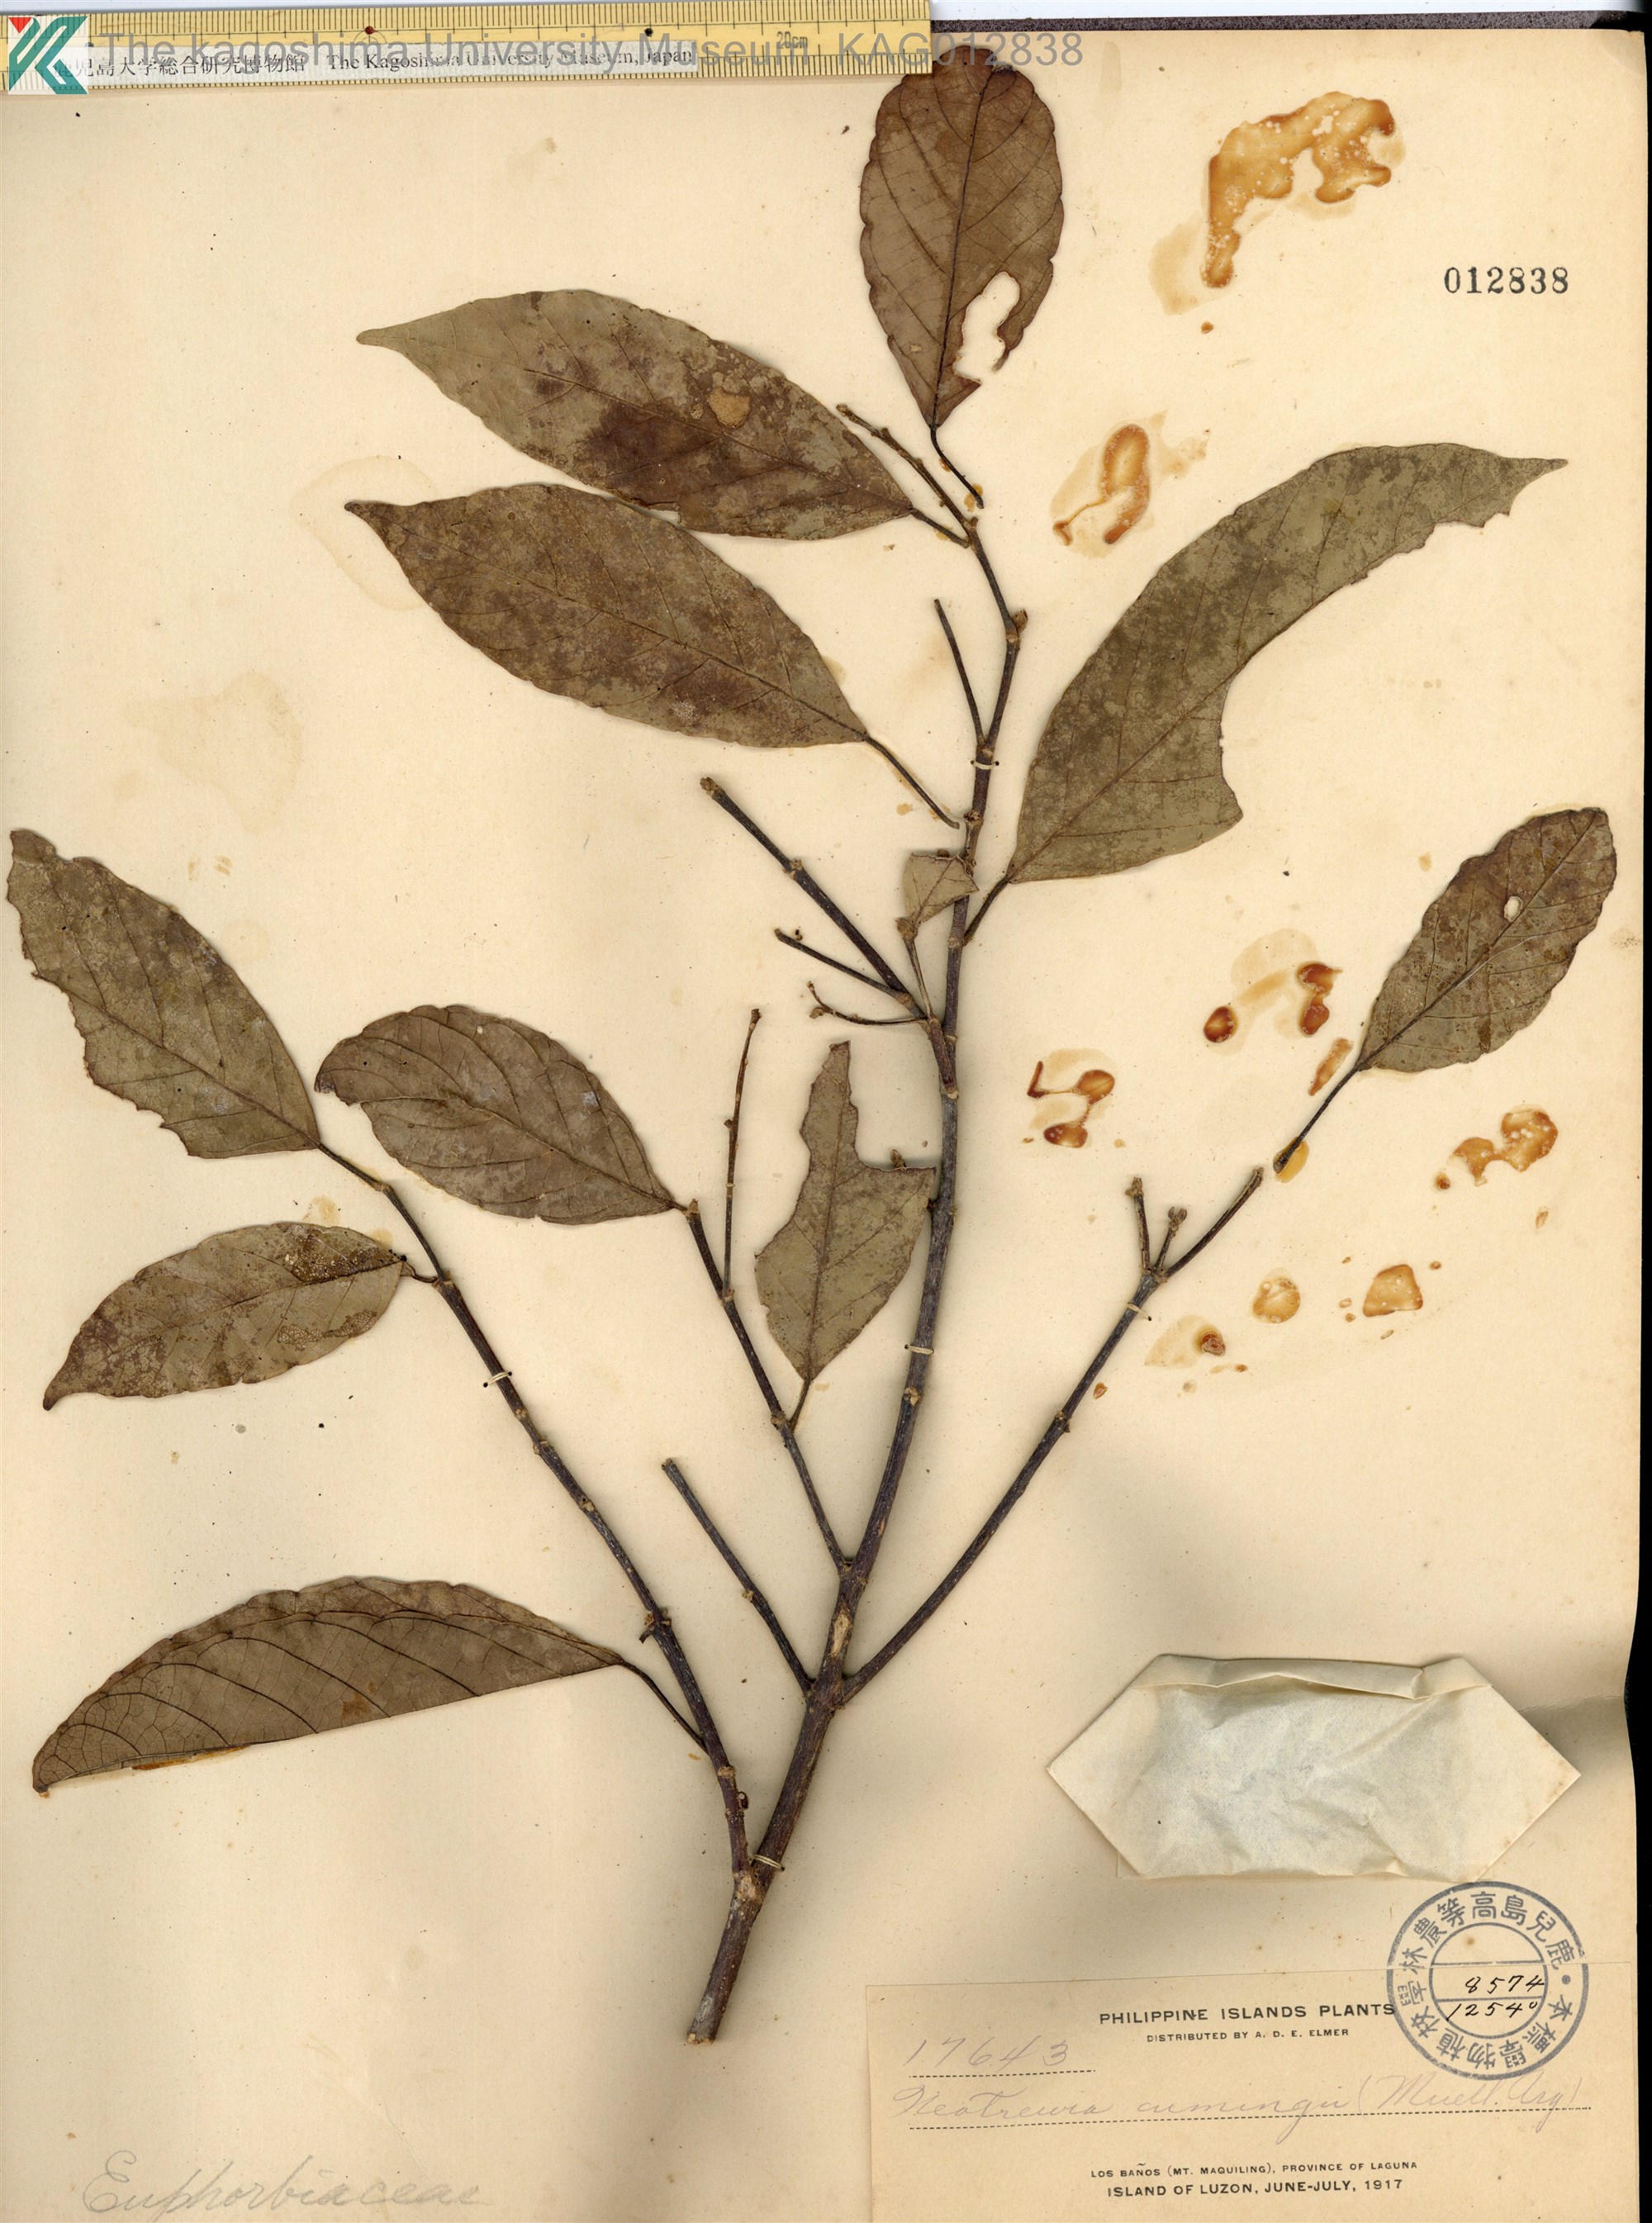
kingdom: Plantae
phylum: Tracheophyta
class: Magnoliopsida
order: Malpighiales
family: Euphorbiaceae
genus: Mallotus
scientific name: Mallotus cumingii
